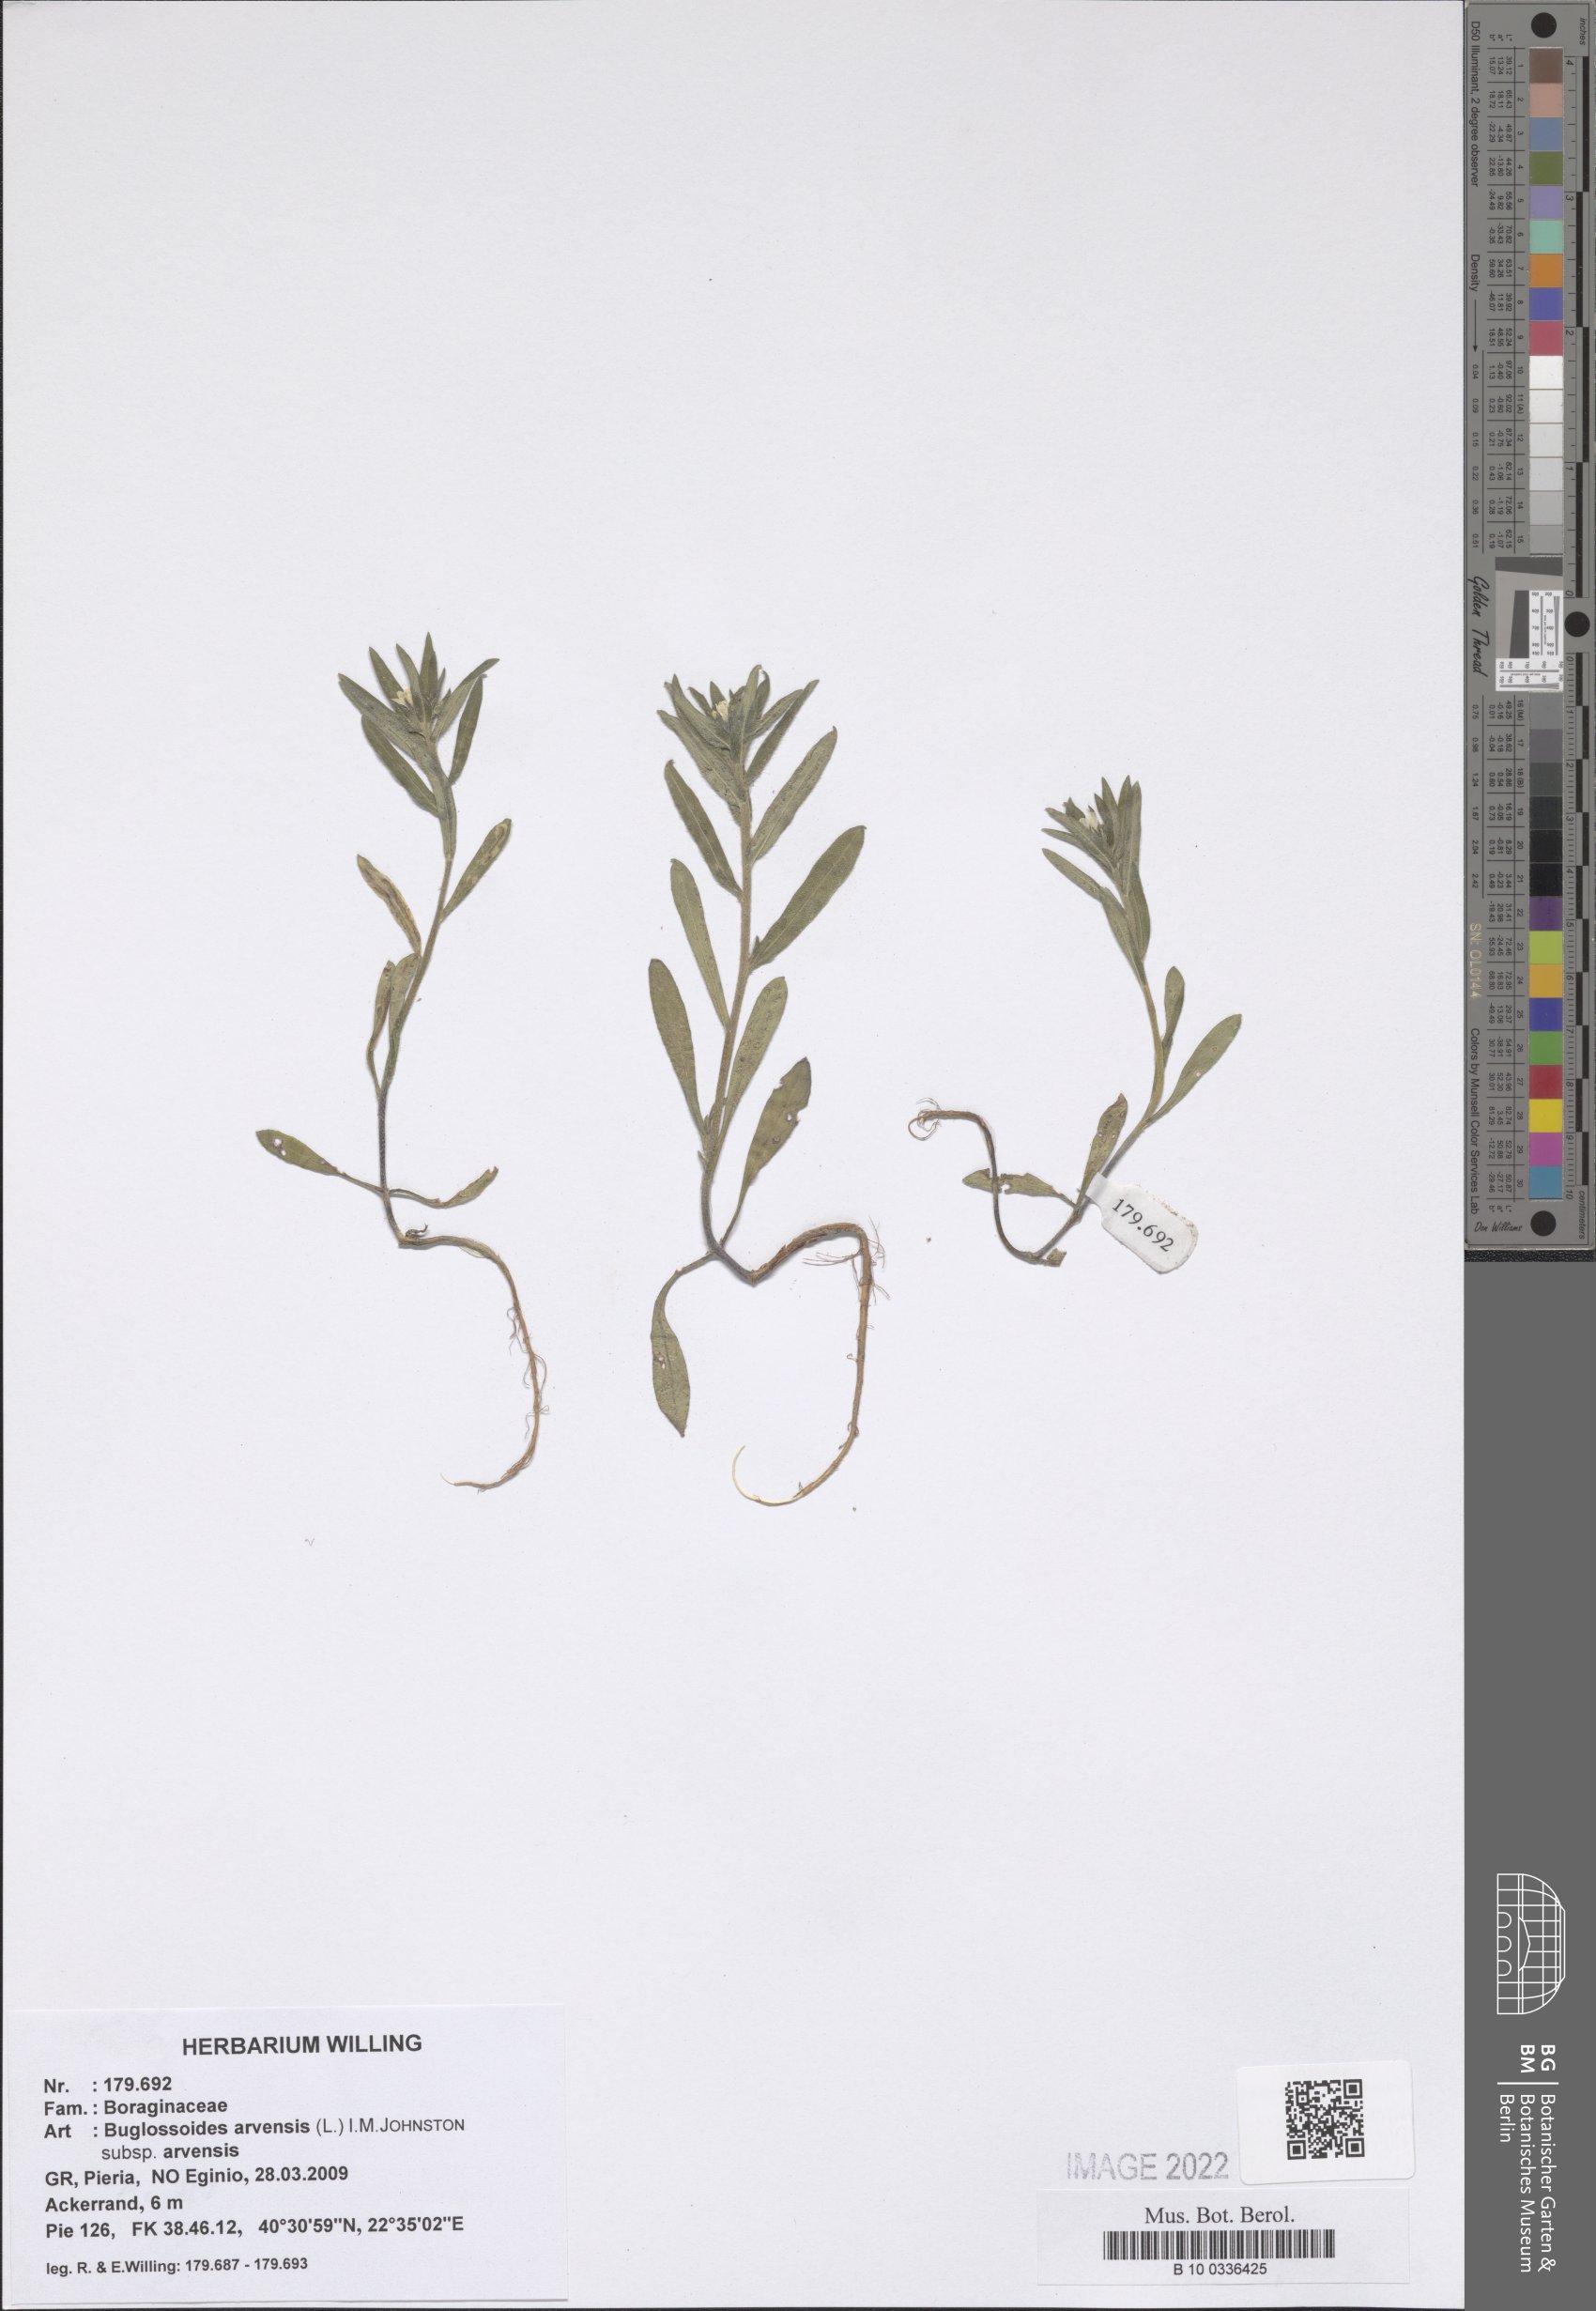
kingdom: Plantae
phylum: Tracheophyta
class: Magnoliopsida
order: Boraginales
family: Boraginaceae
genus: Buglossoides
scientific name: Buglossoides arvensis
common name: Corn gromwell
